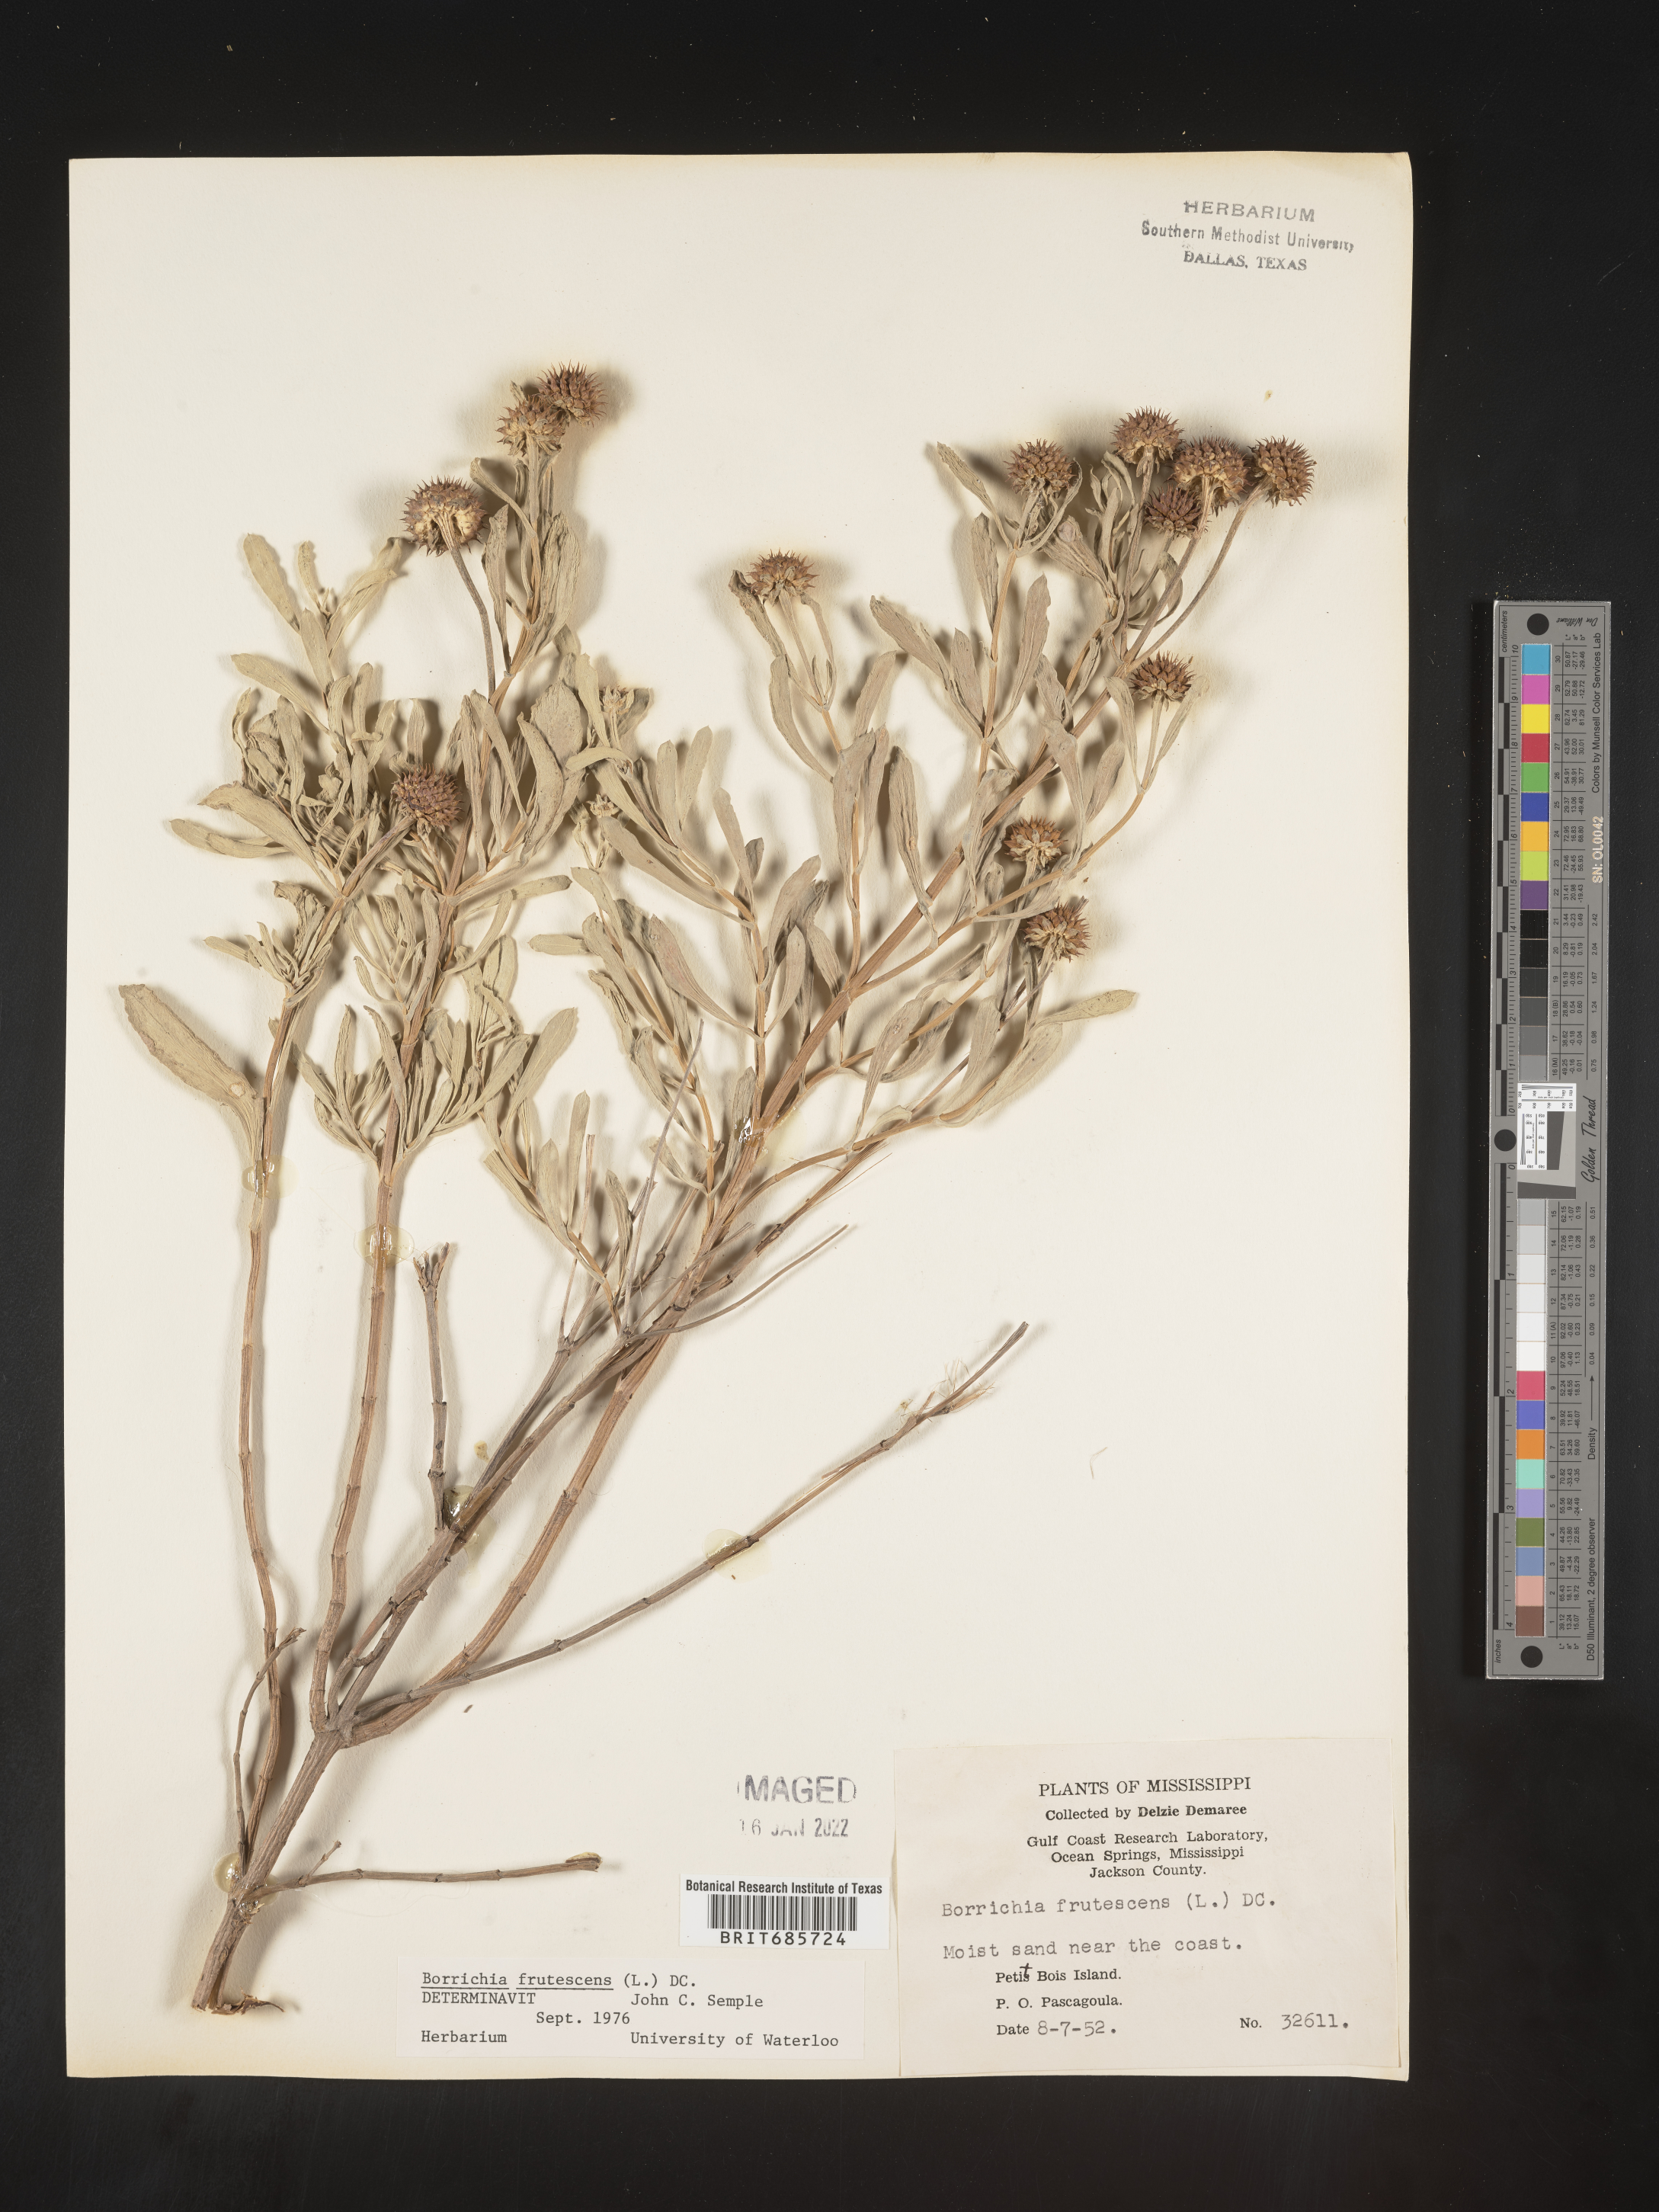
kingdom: Plantae
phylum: Tracheophyta
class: Magnoliopsida
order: Asterales
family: Asteraceae
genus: Borrichia
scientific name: Borrichia frutescens
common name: Sea oxeye
